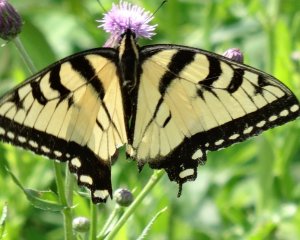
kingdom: Animalia
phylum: Arthropoda
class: Insecta
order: Lepidoptera
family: Papilionidae
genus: Pterourus
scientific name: Pterourus glaucus
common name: Eastern Tiger Swallowtail
